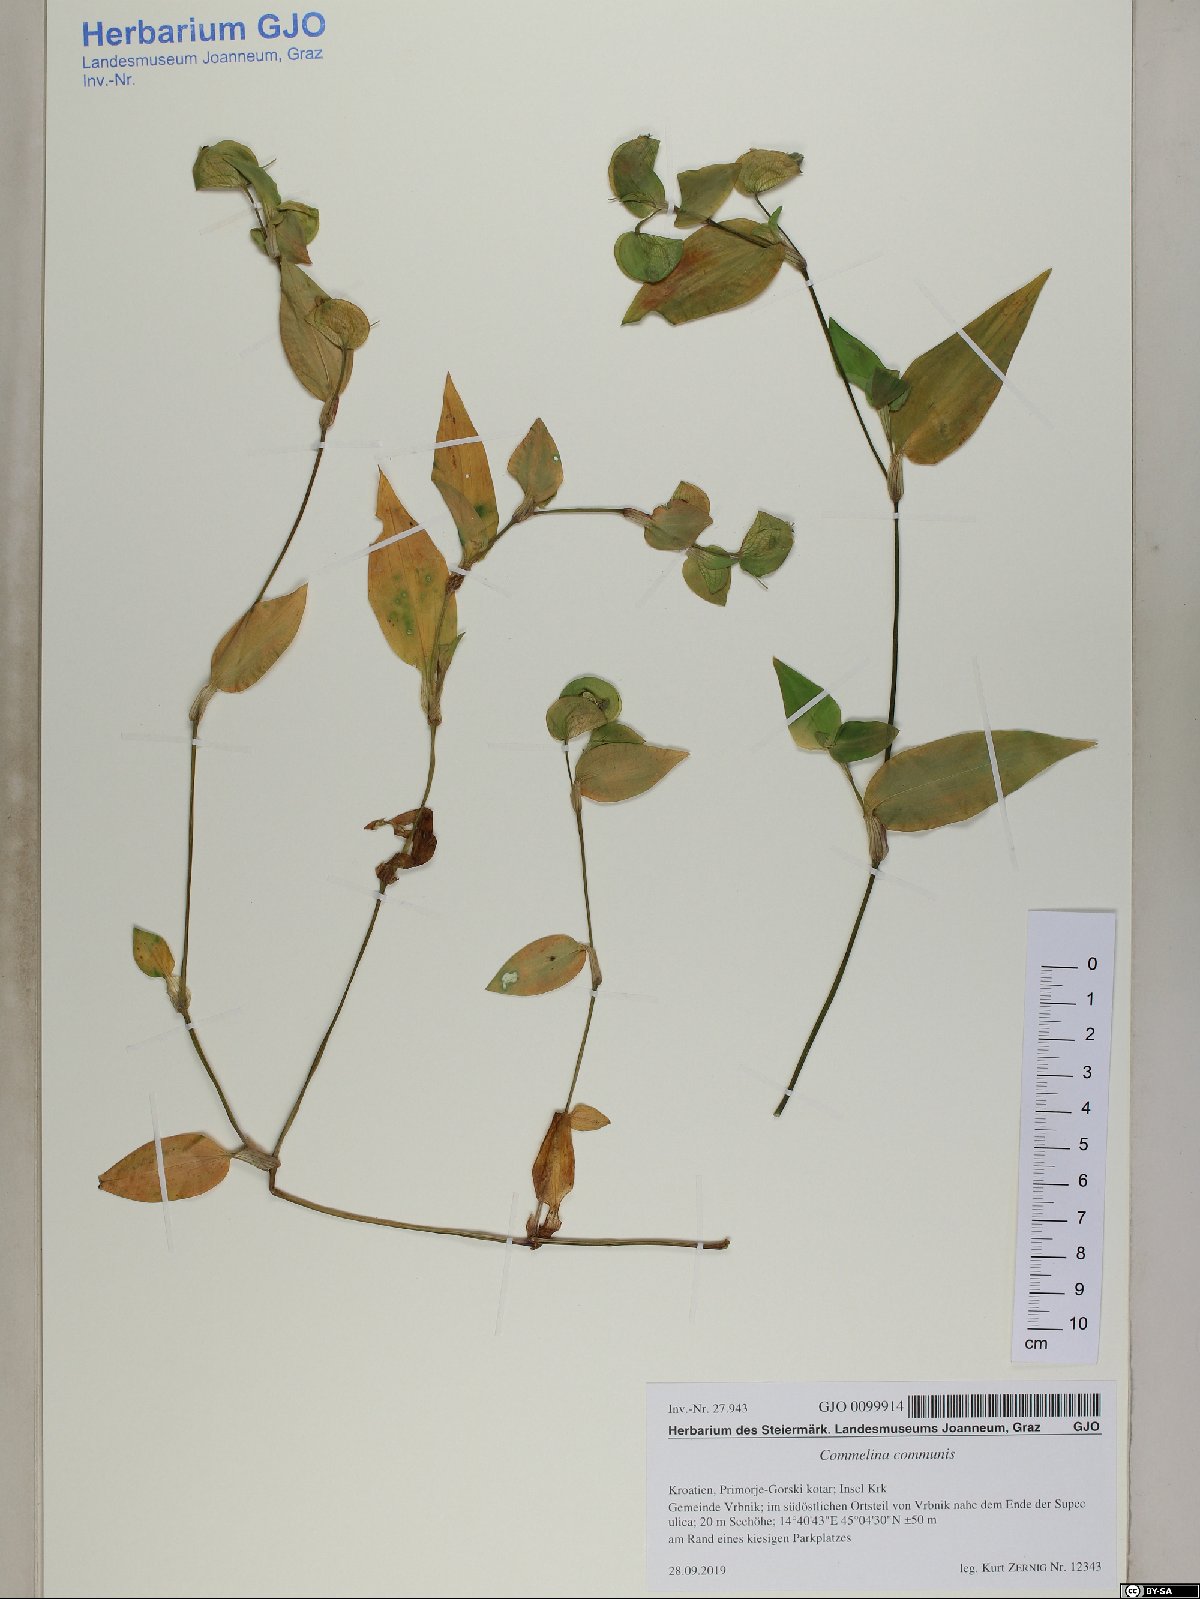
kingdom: Plantae
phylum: Tracheophyta
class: Liliopsida
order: Commelinales
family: Commelinaceae
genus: Commelina
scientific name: Commelina communis
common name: Asiatic dayflower
